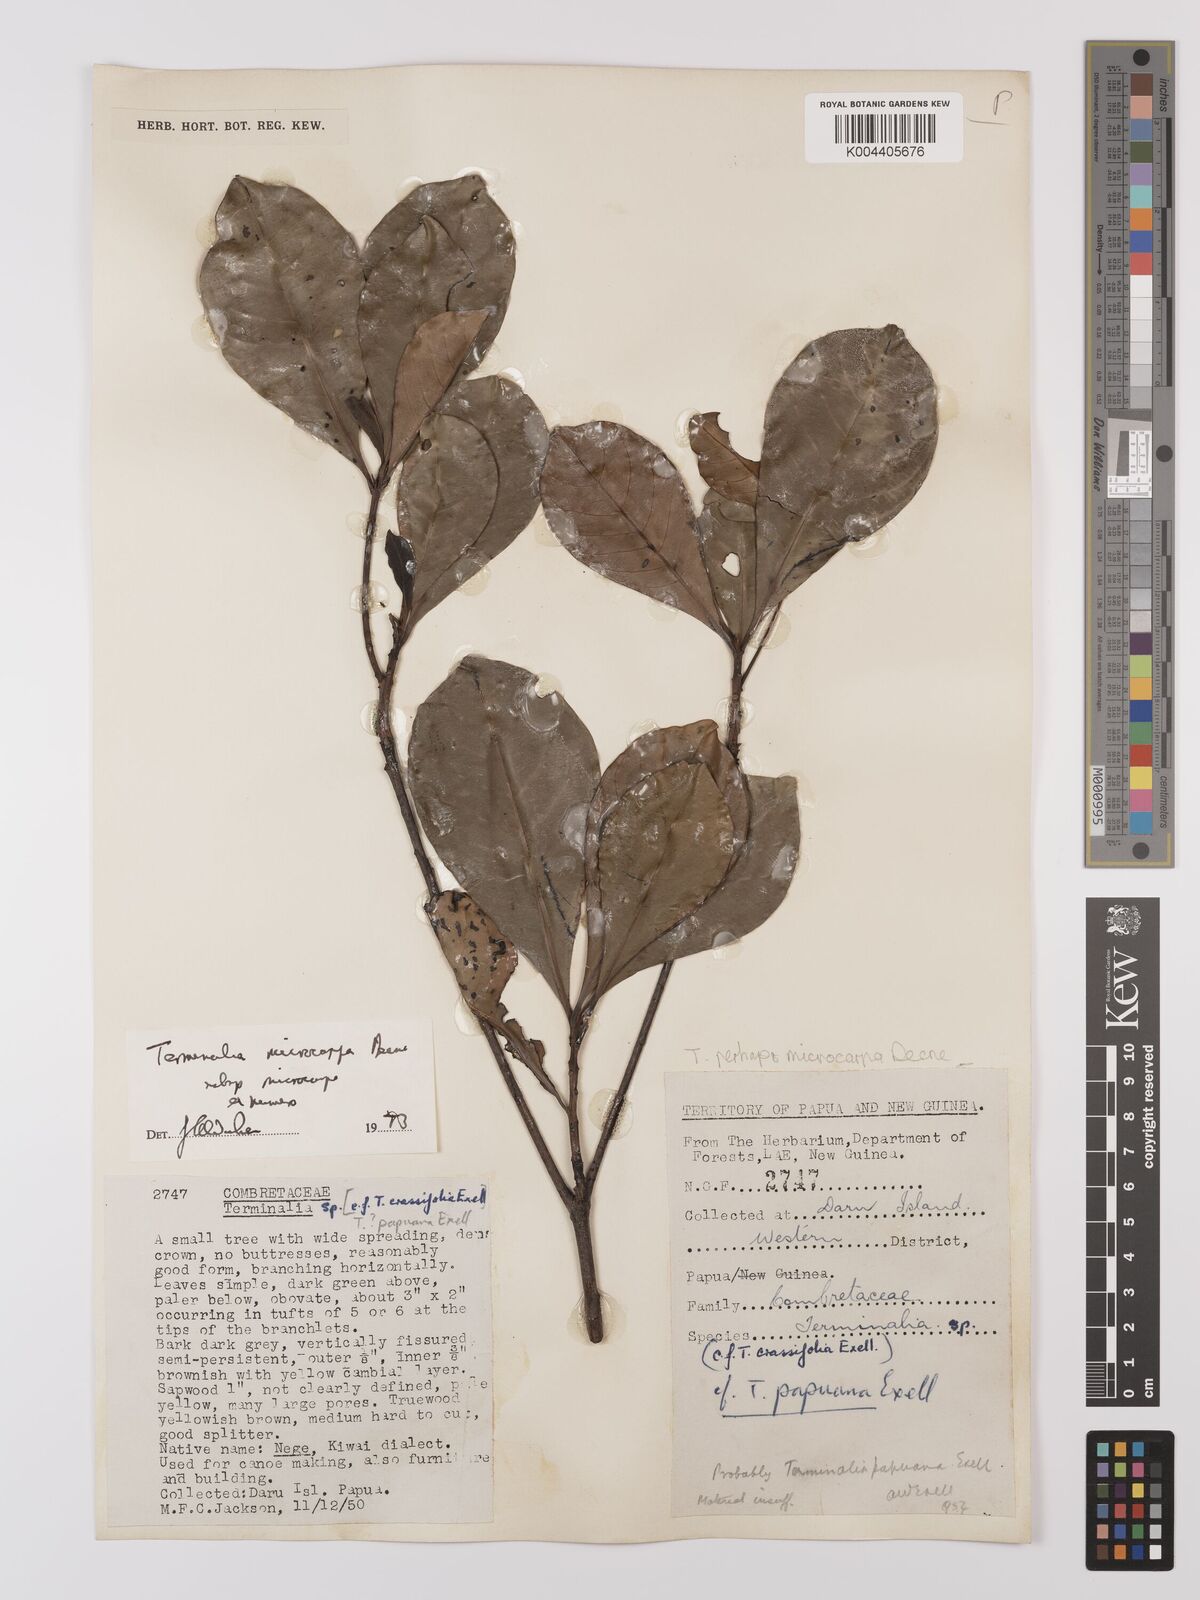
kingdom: Plantae
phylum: Tracheophyta
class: Magnoliopsida
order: Myrtales
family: Combretaceae
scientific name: Combretaceae
